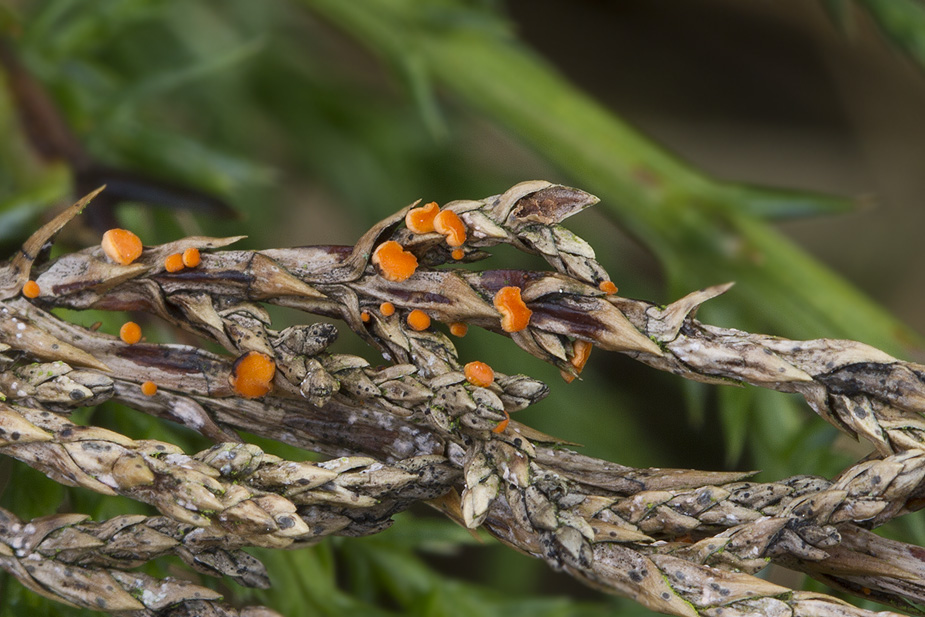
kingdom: Fungi
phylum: Ascomycota
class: Pezizomycetes
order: Pezizales
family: Sarcoscyphaceae
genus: Pithya
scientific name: Pithya cupressina
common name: lille dukatbæger
